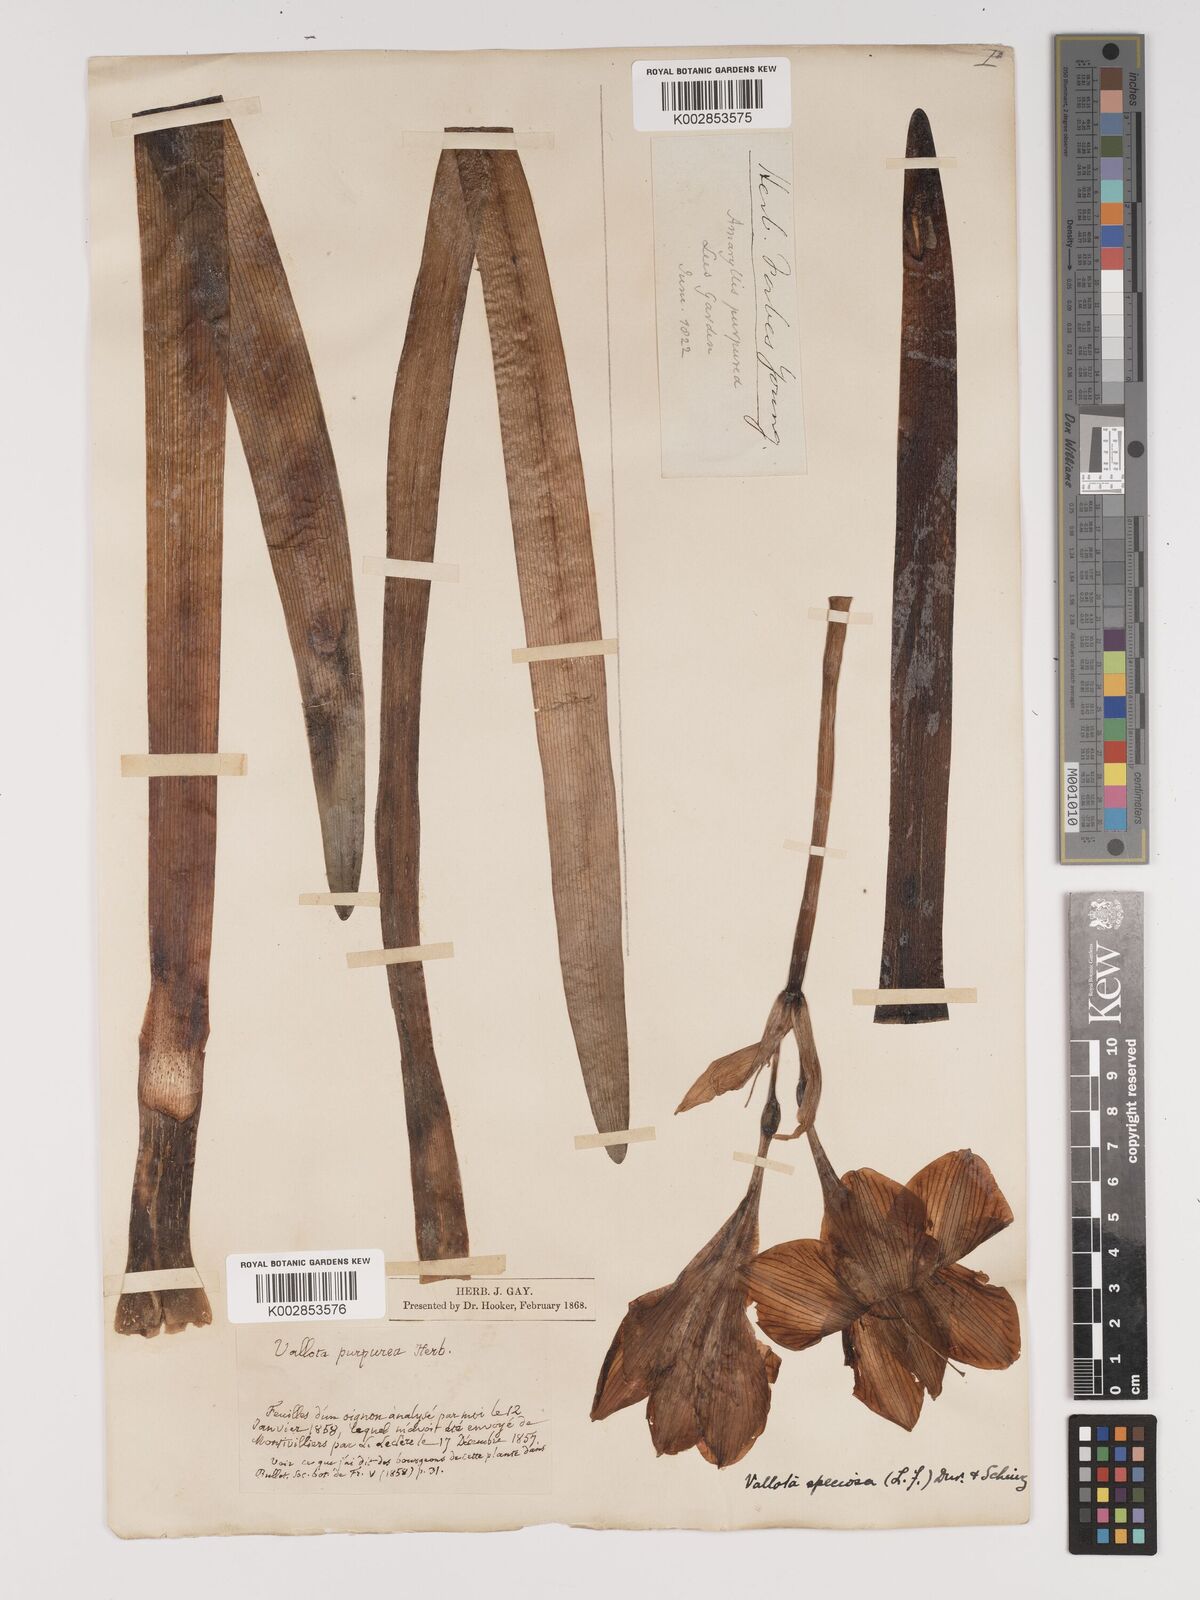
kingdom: Plantae
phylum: Tracheophyta
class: Liliopsida
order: Asparagales
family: Amaryllidaceae
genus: Cyrtanthus
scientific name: Cyrtanthus elatus
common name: Scarborough-lily
